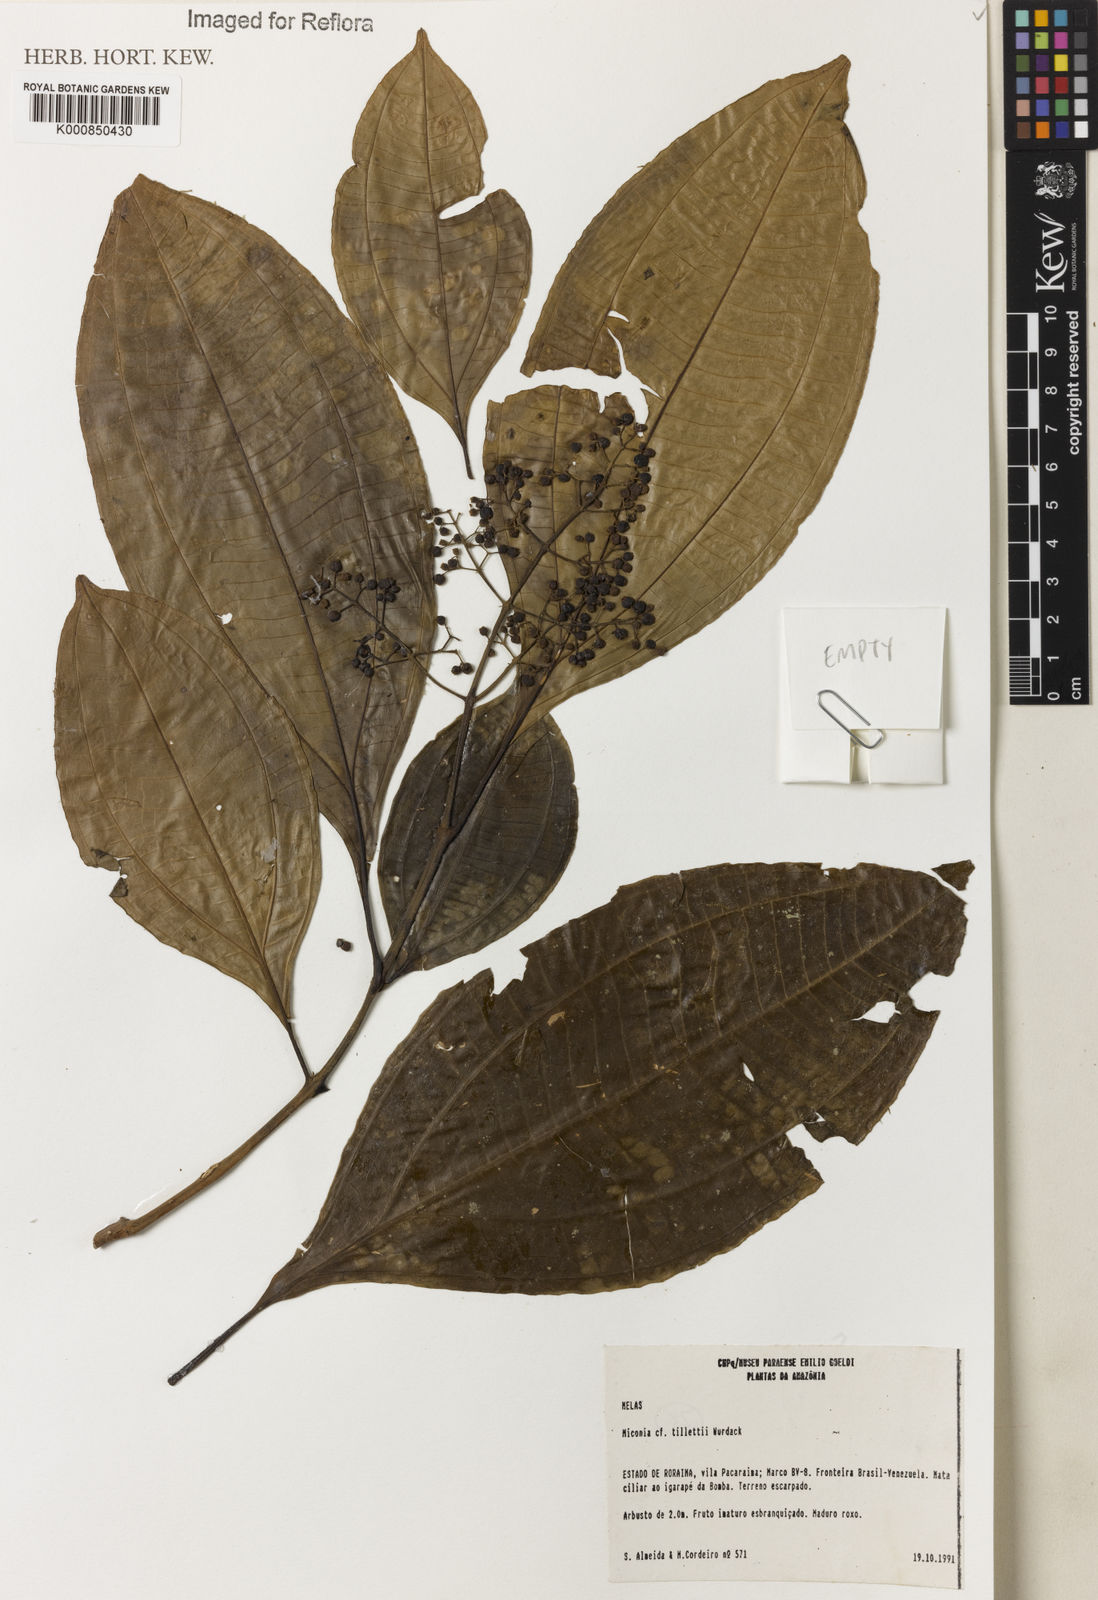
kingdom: Plantae
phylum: Tracheophyta
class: Magnoliopsida
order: Myrtales
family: Melastomataceae
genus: Miconia
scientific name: Miconia tillettii
